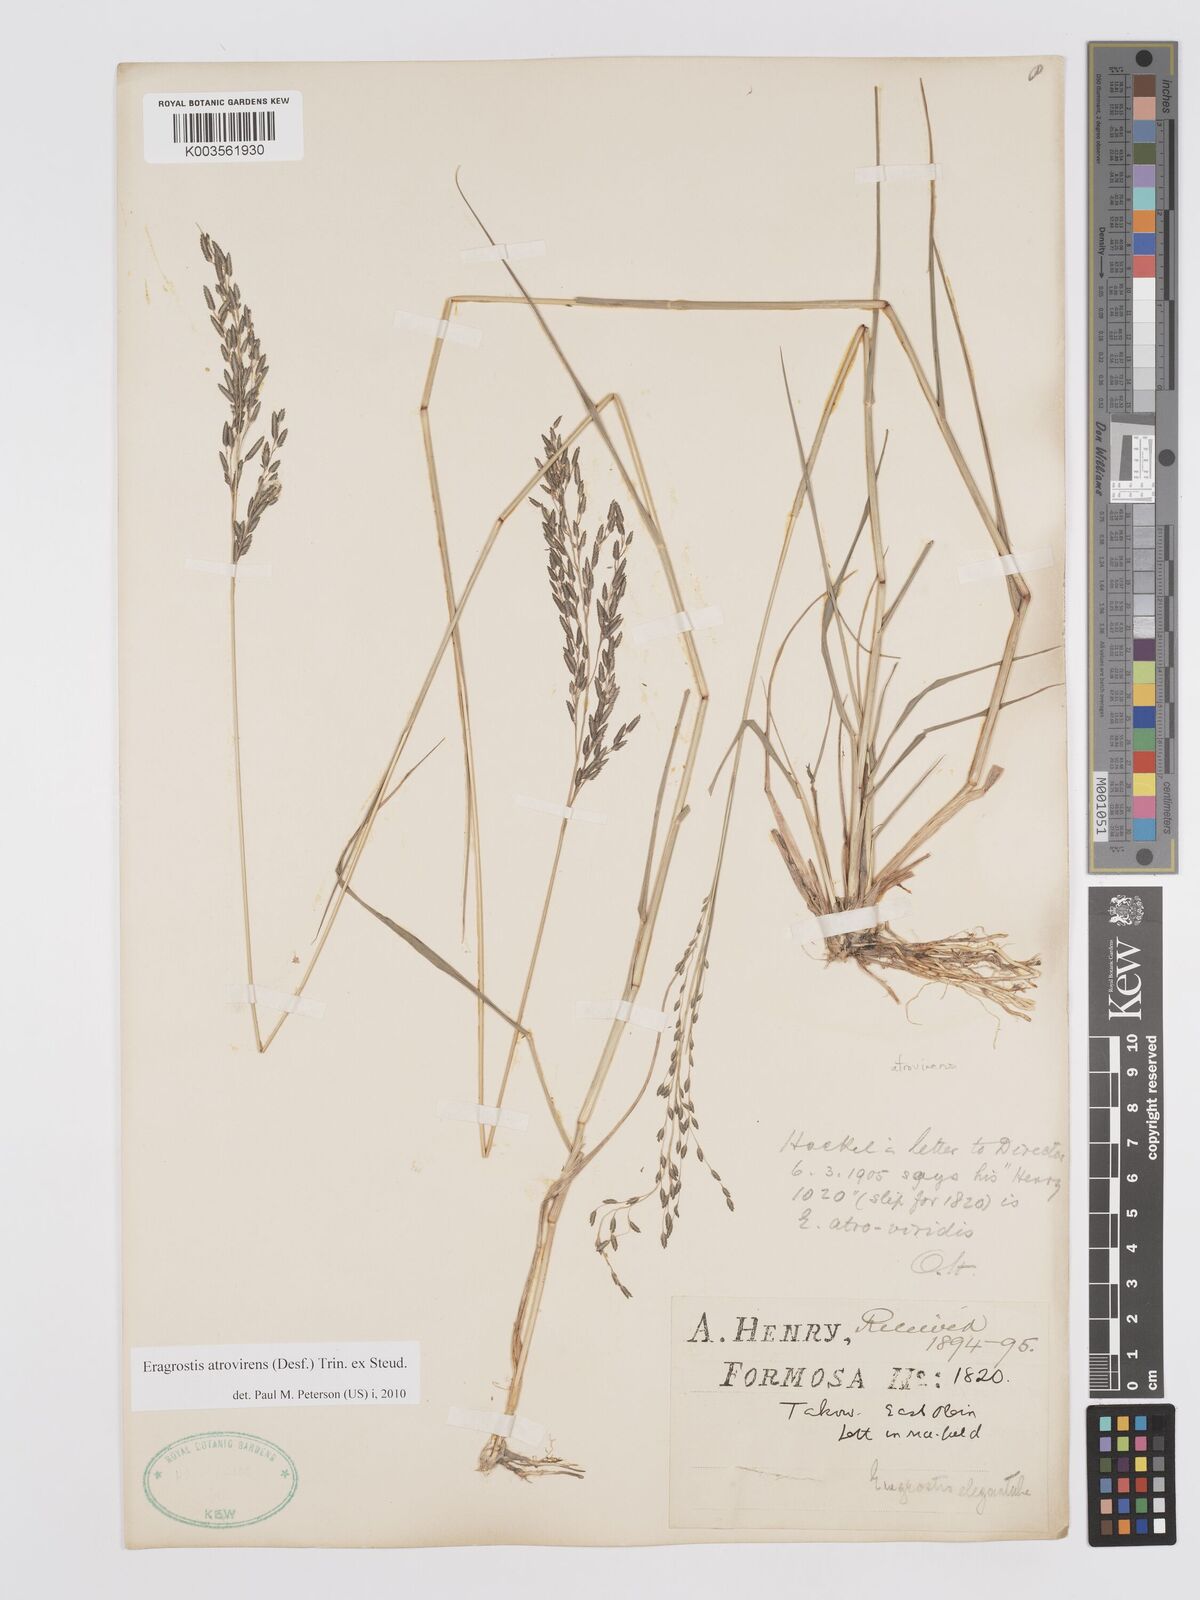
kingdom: Plantae
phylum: Tracheophyta
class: Liliopsida
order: Poales
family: Poaceae
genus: Eragrostis
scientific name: Eragrostis atrovirens
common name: Thalia lovegrass
